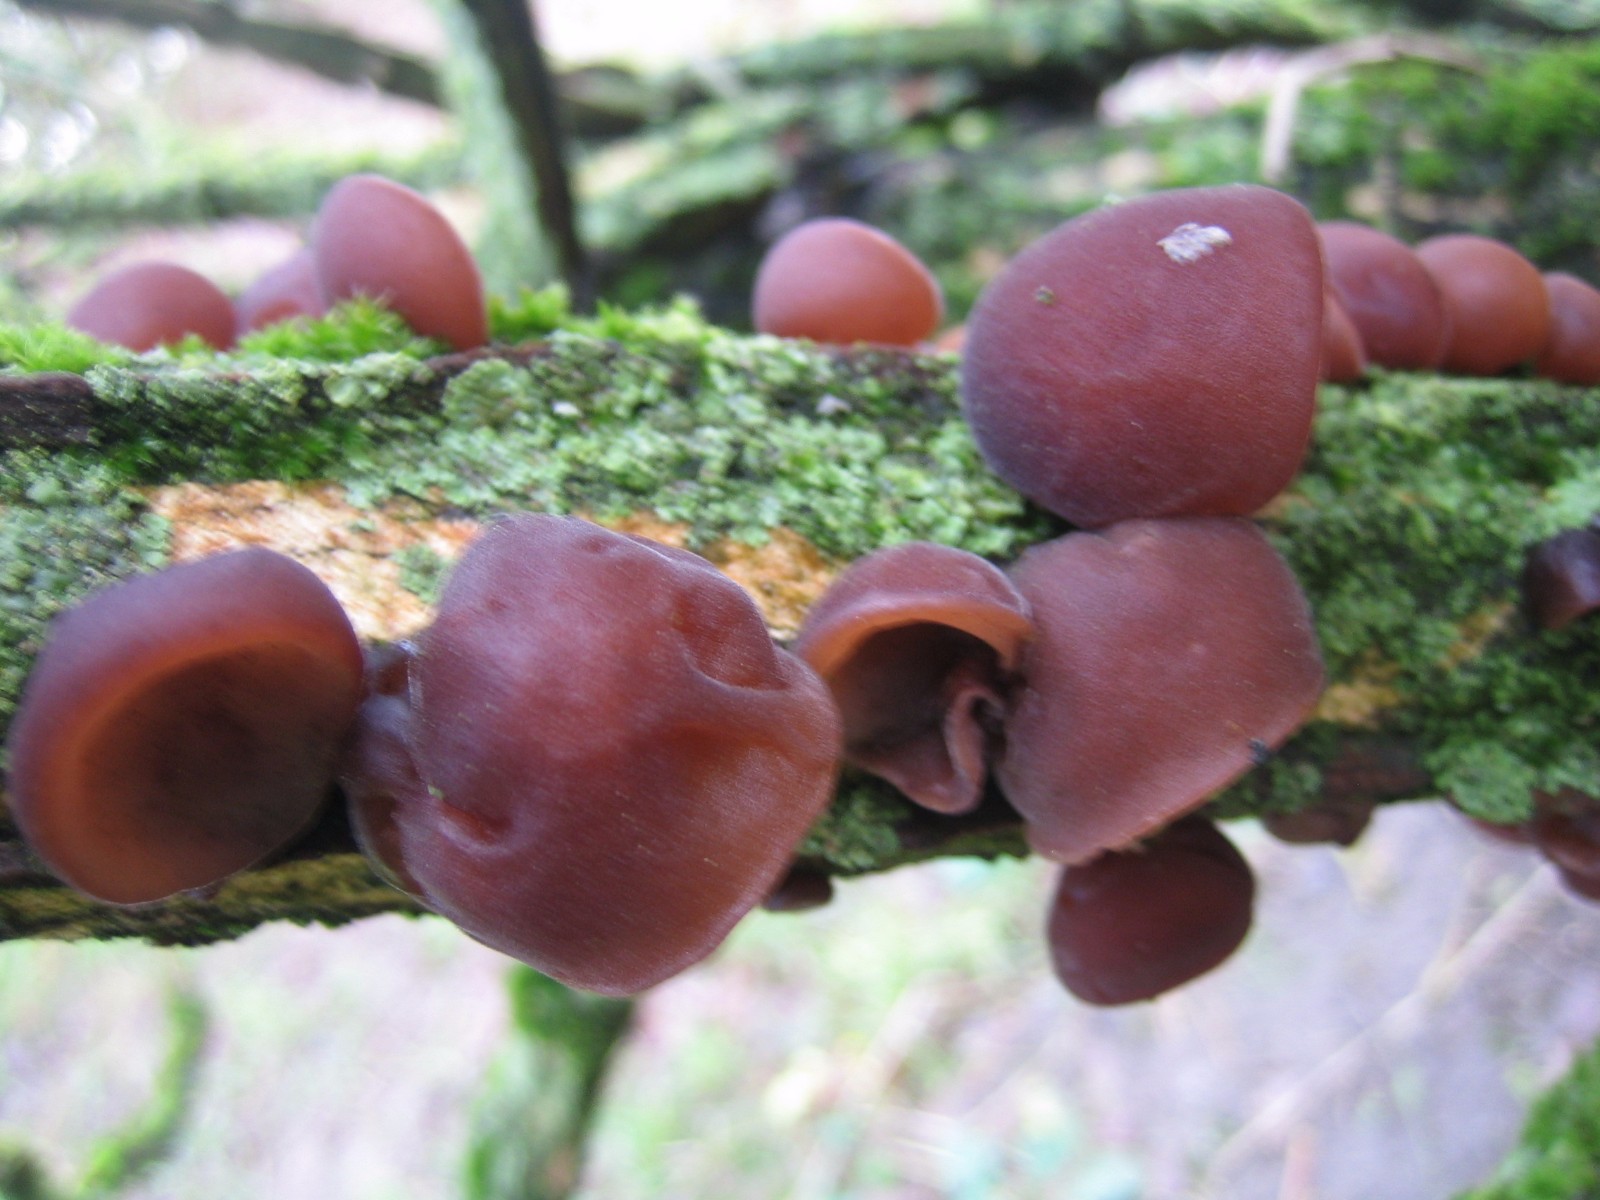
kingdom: Fungi
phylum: Basidiomycota
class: Agaricomycetes
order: Auriculariales
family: Auriculariaceae
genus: Auricularia
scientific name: Auricularia auricula-judae
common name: almindelig judasøre
